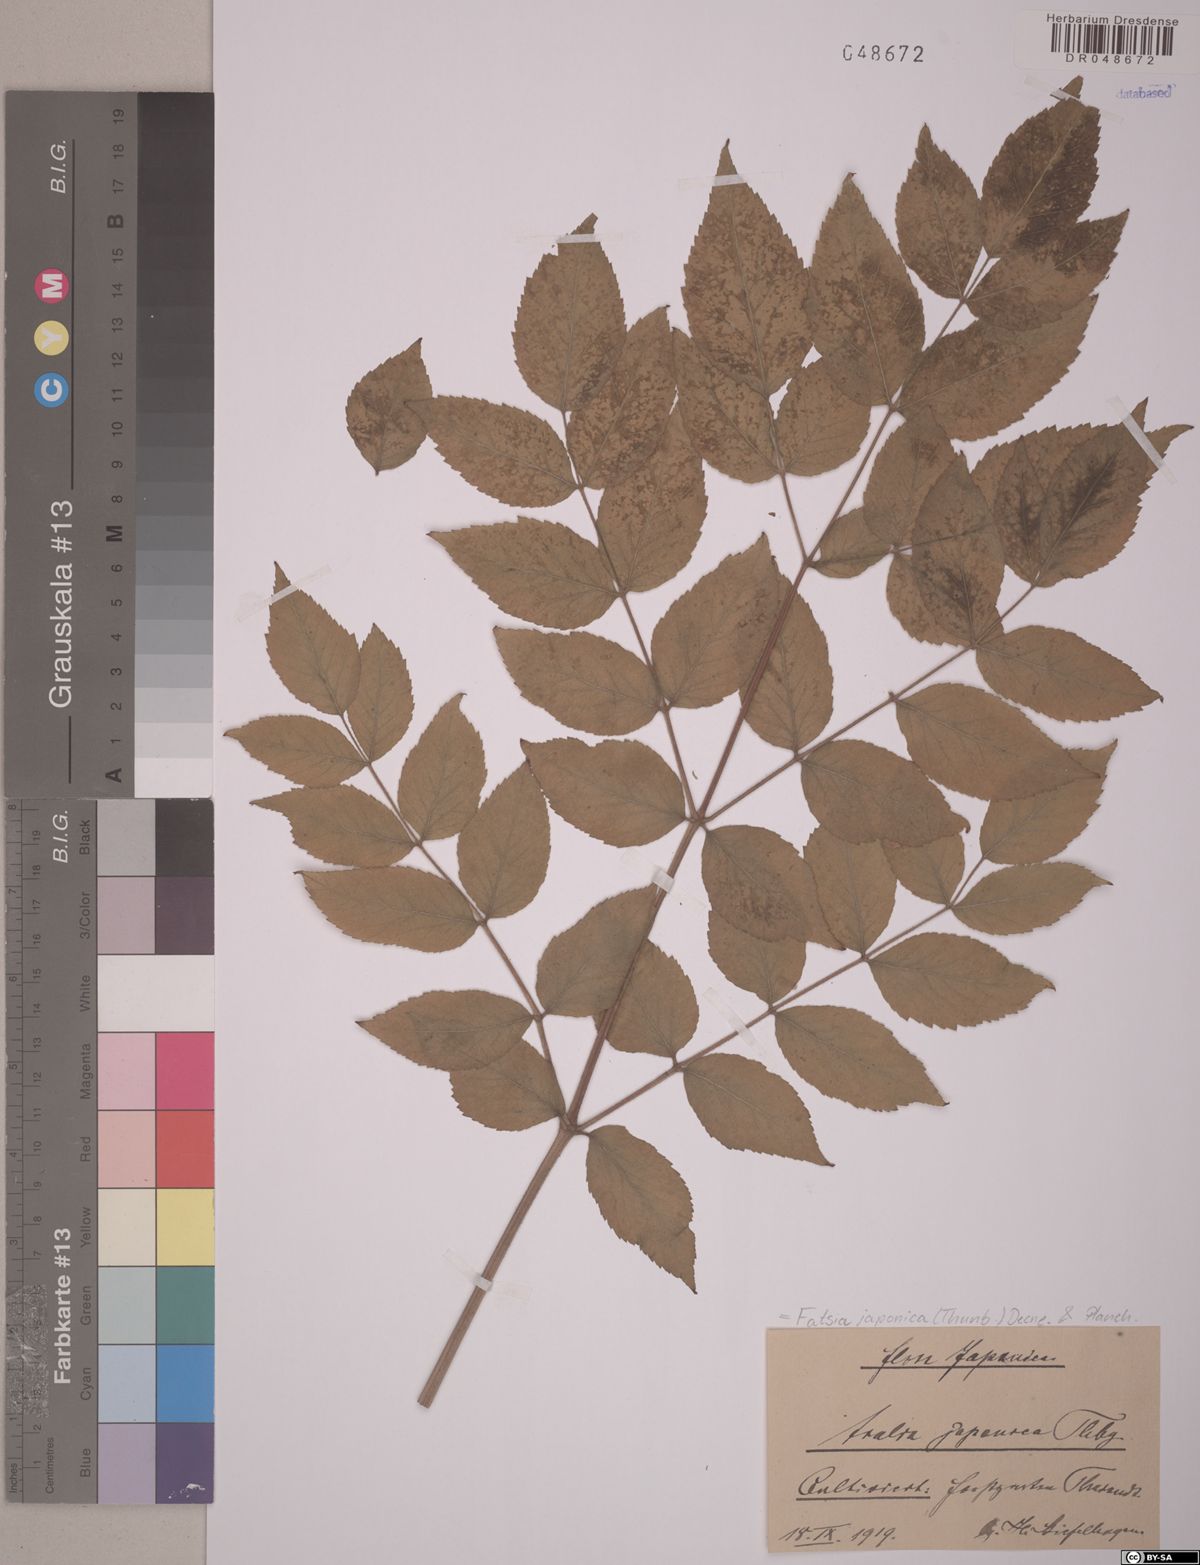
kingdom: Plantae
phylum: Tracheophyta
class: Magnoliopsida
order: Apiales
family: Araliaceae
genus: Fatsia
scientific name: Fatsia japonica
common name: Fatsia
